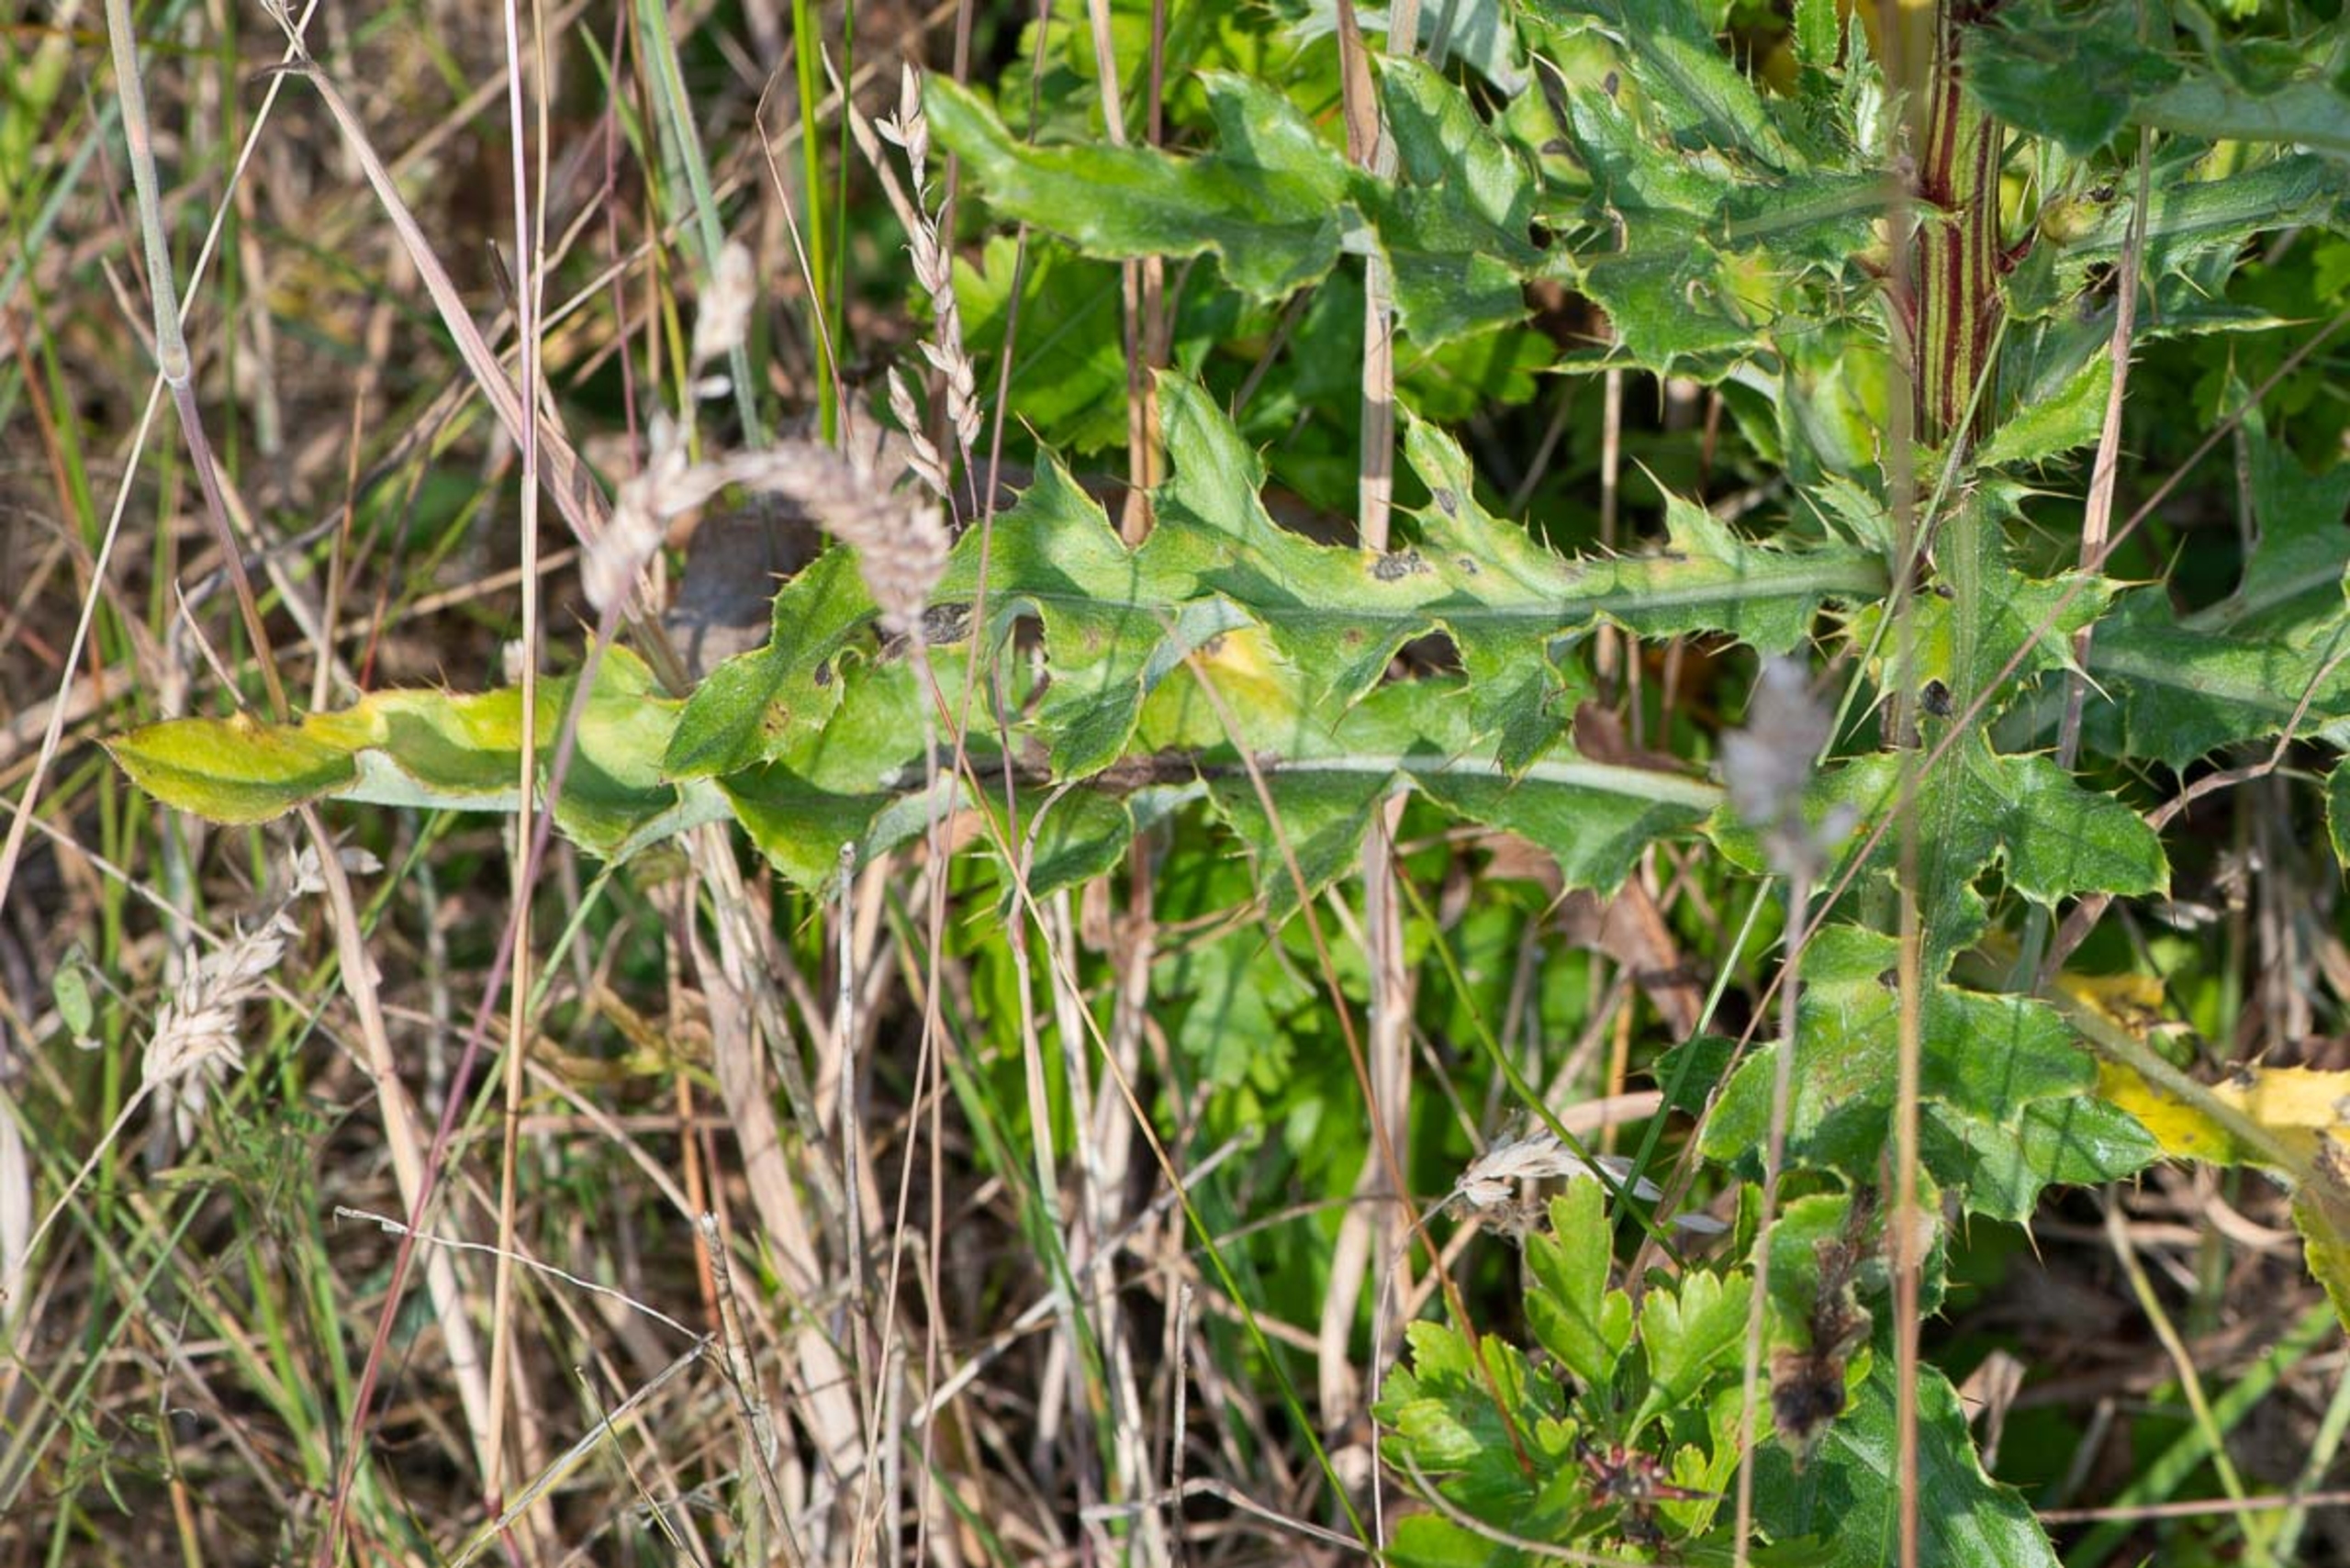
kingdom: Plantae
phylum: Tracheophyta
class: Magnoliopsida
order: Asterales
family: Asteraceae
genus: Cirsium
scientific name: Cirsium arvense
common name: Ager-tidsel
